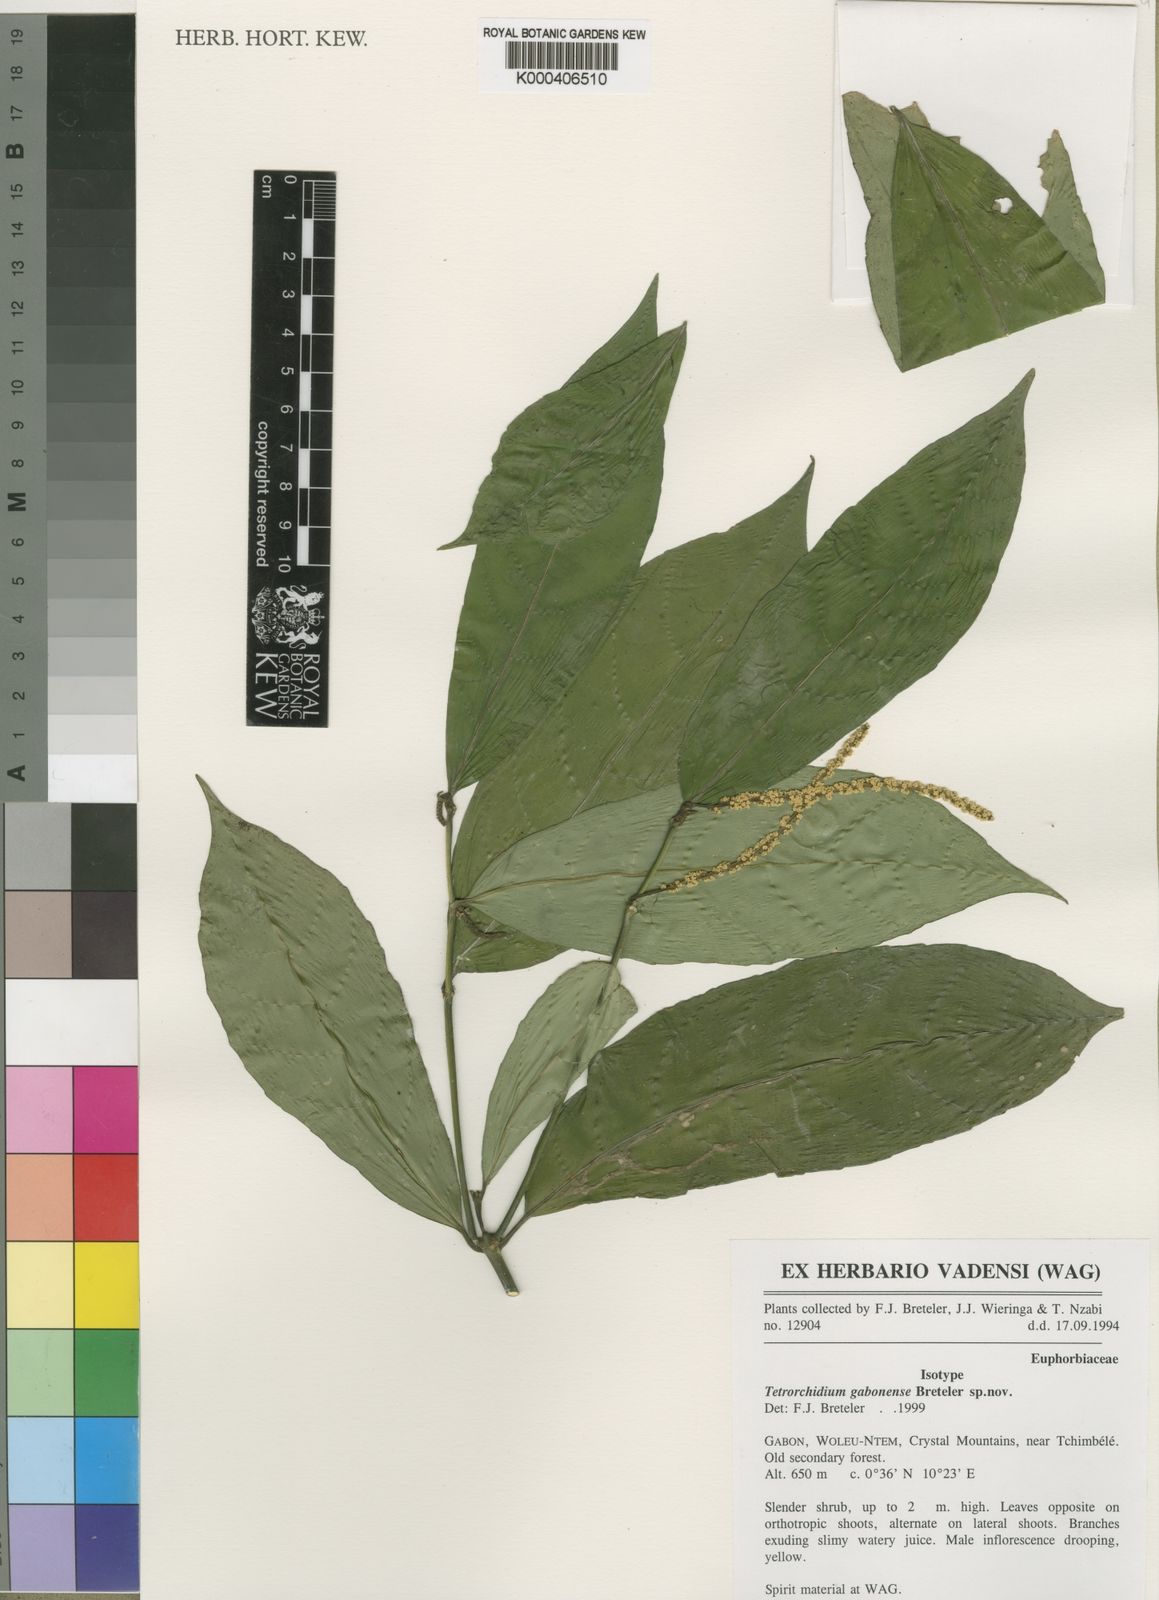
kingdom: Plantae
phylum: Tracheophyta
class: Magnoliopsida
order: Malpighiales
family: Euphorbiaceae
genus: Tetrorchidium
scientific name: Tetrorchidium gabonense
